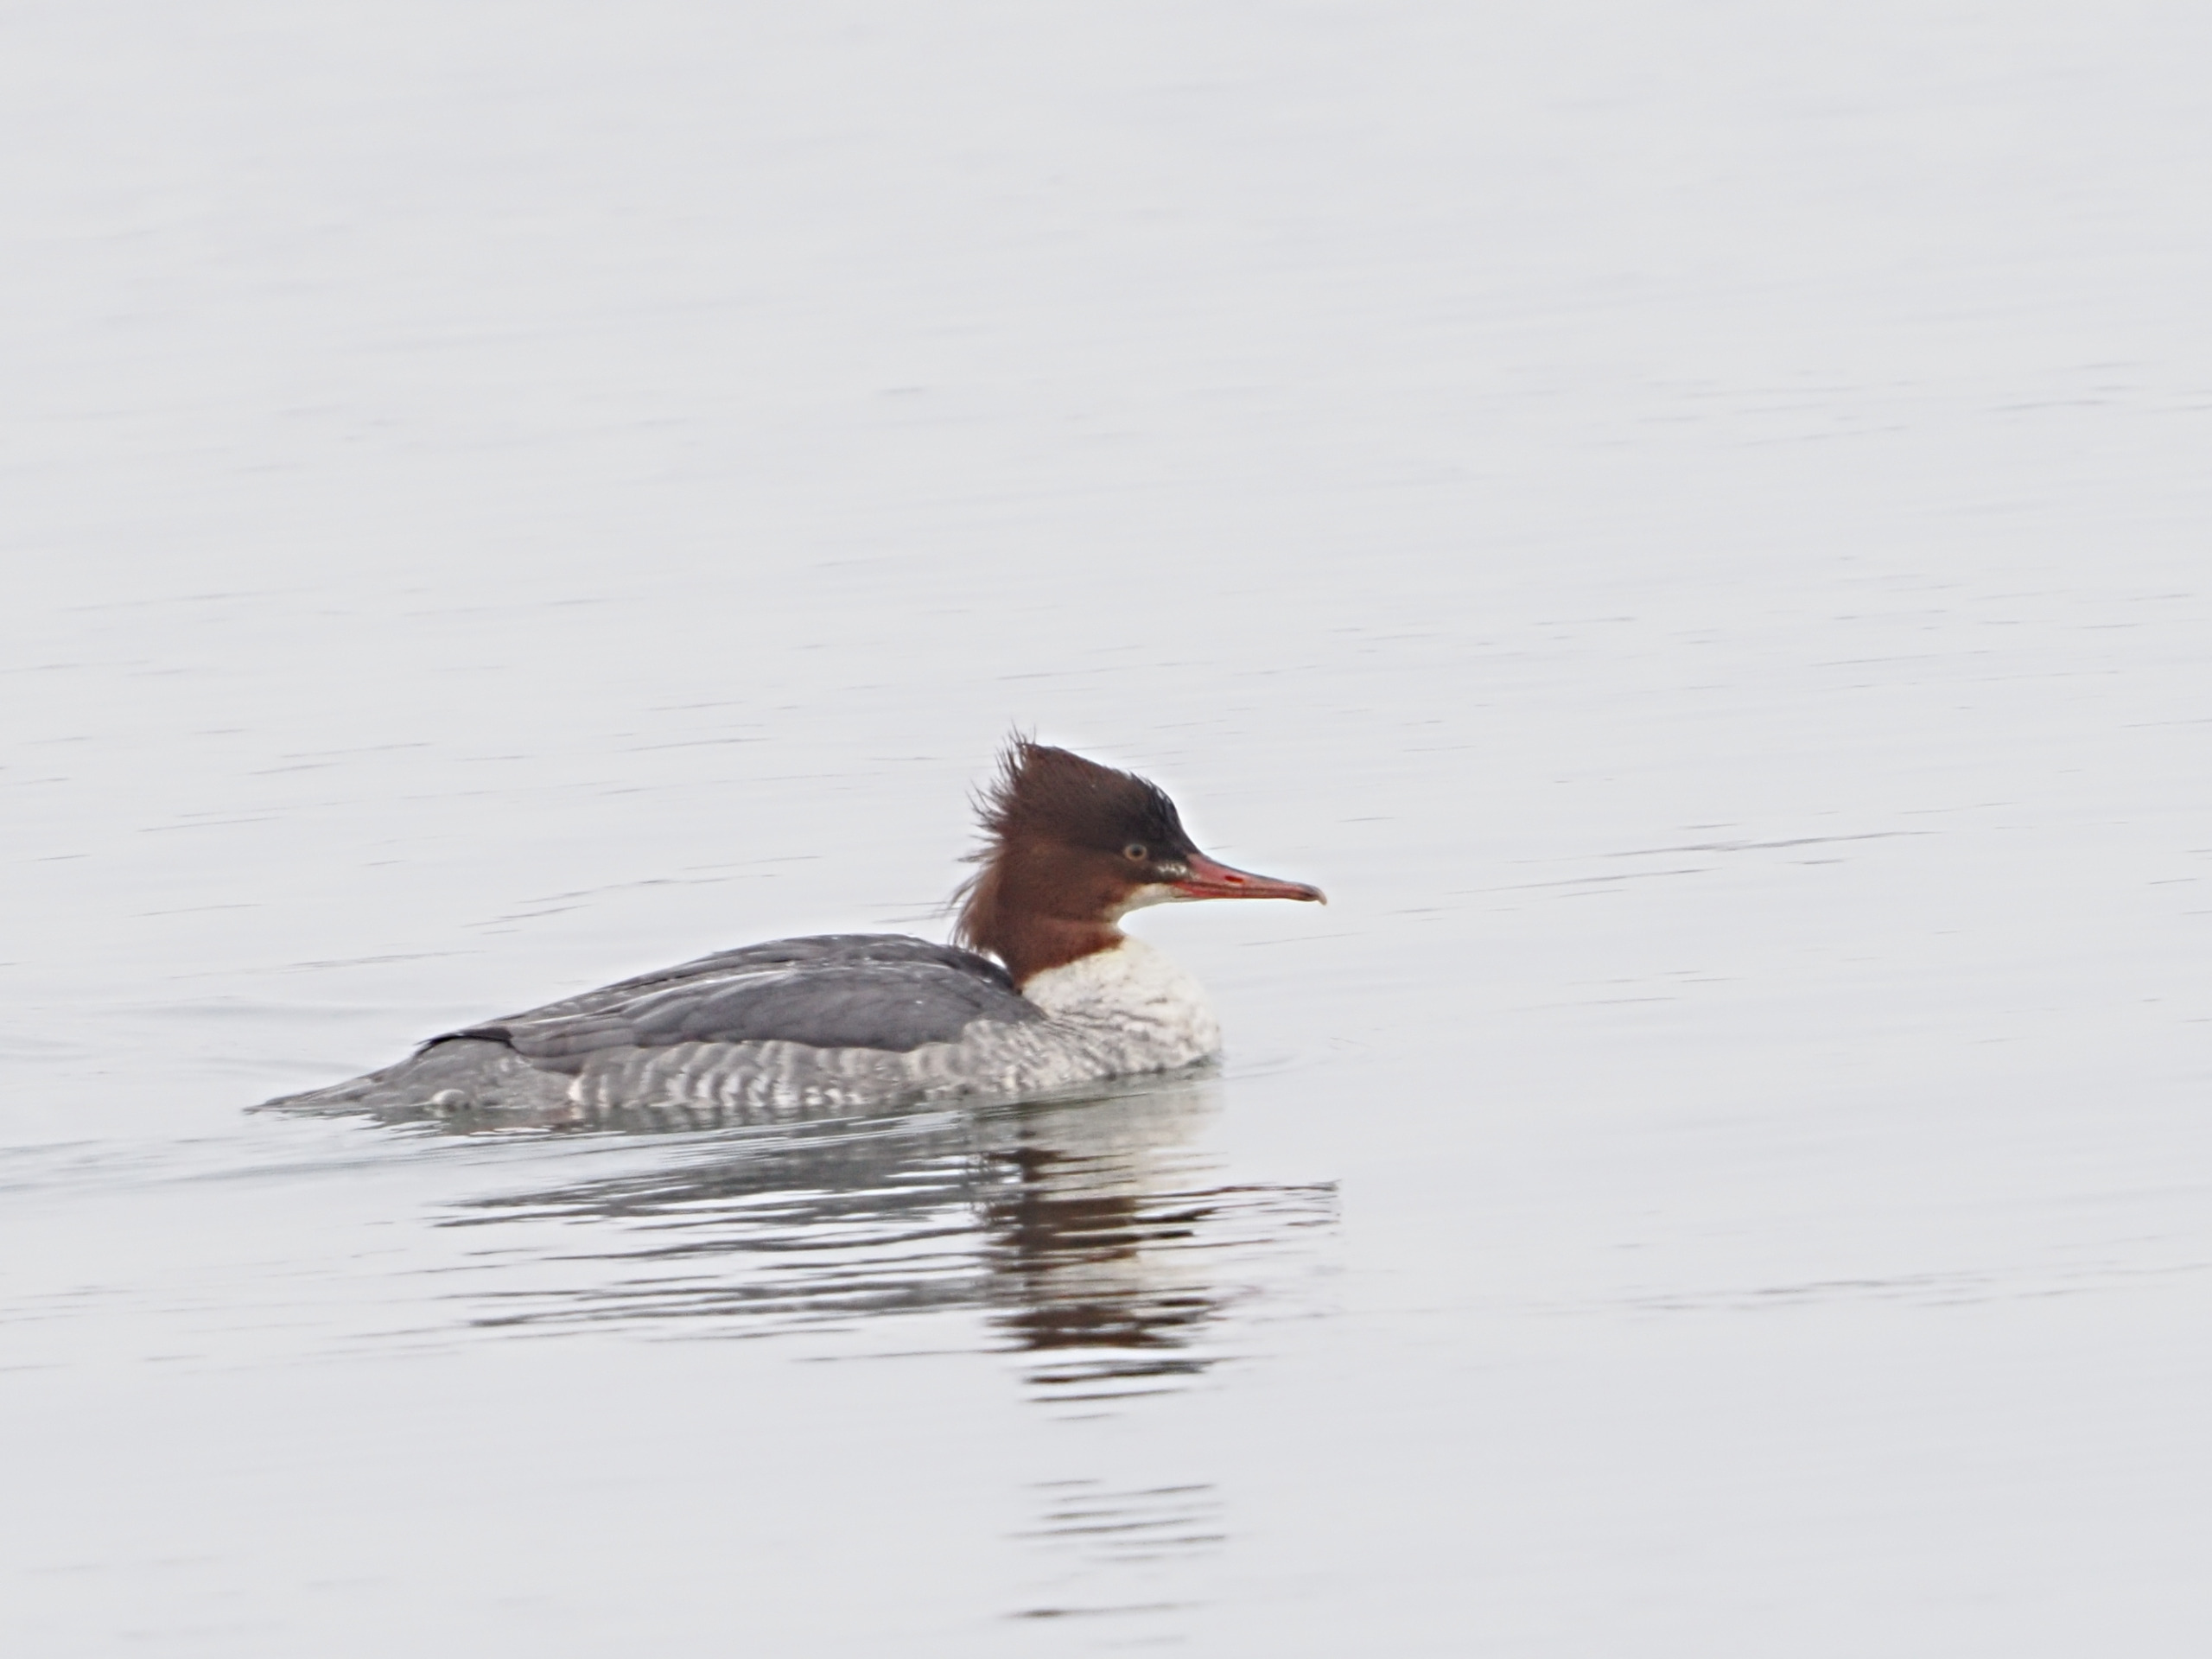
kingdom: Animalia
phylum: Chordata
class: Aves
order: Anseriformes
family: Anatidae
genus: Mergus
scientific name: Mergus merganser
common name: Stor skallesluger
